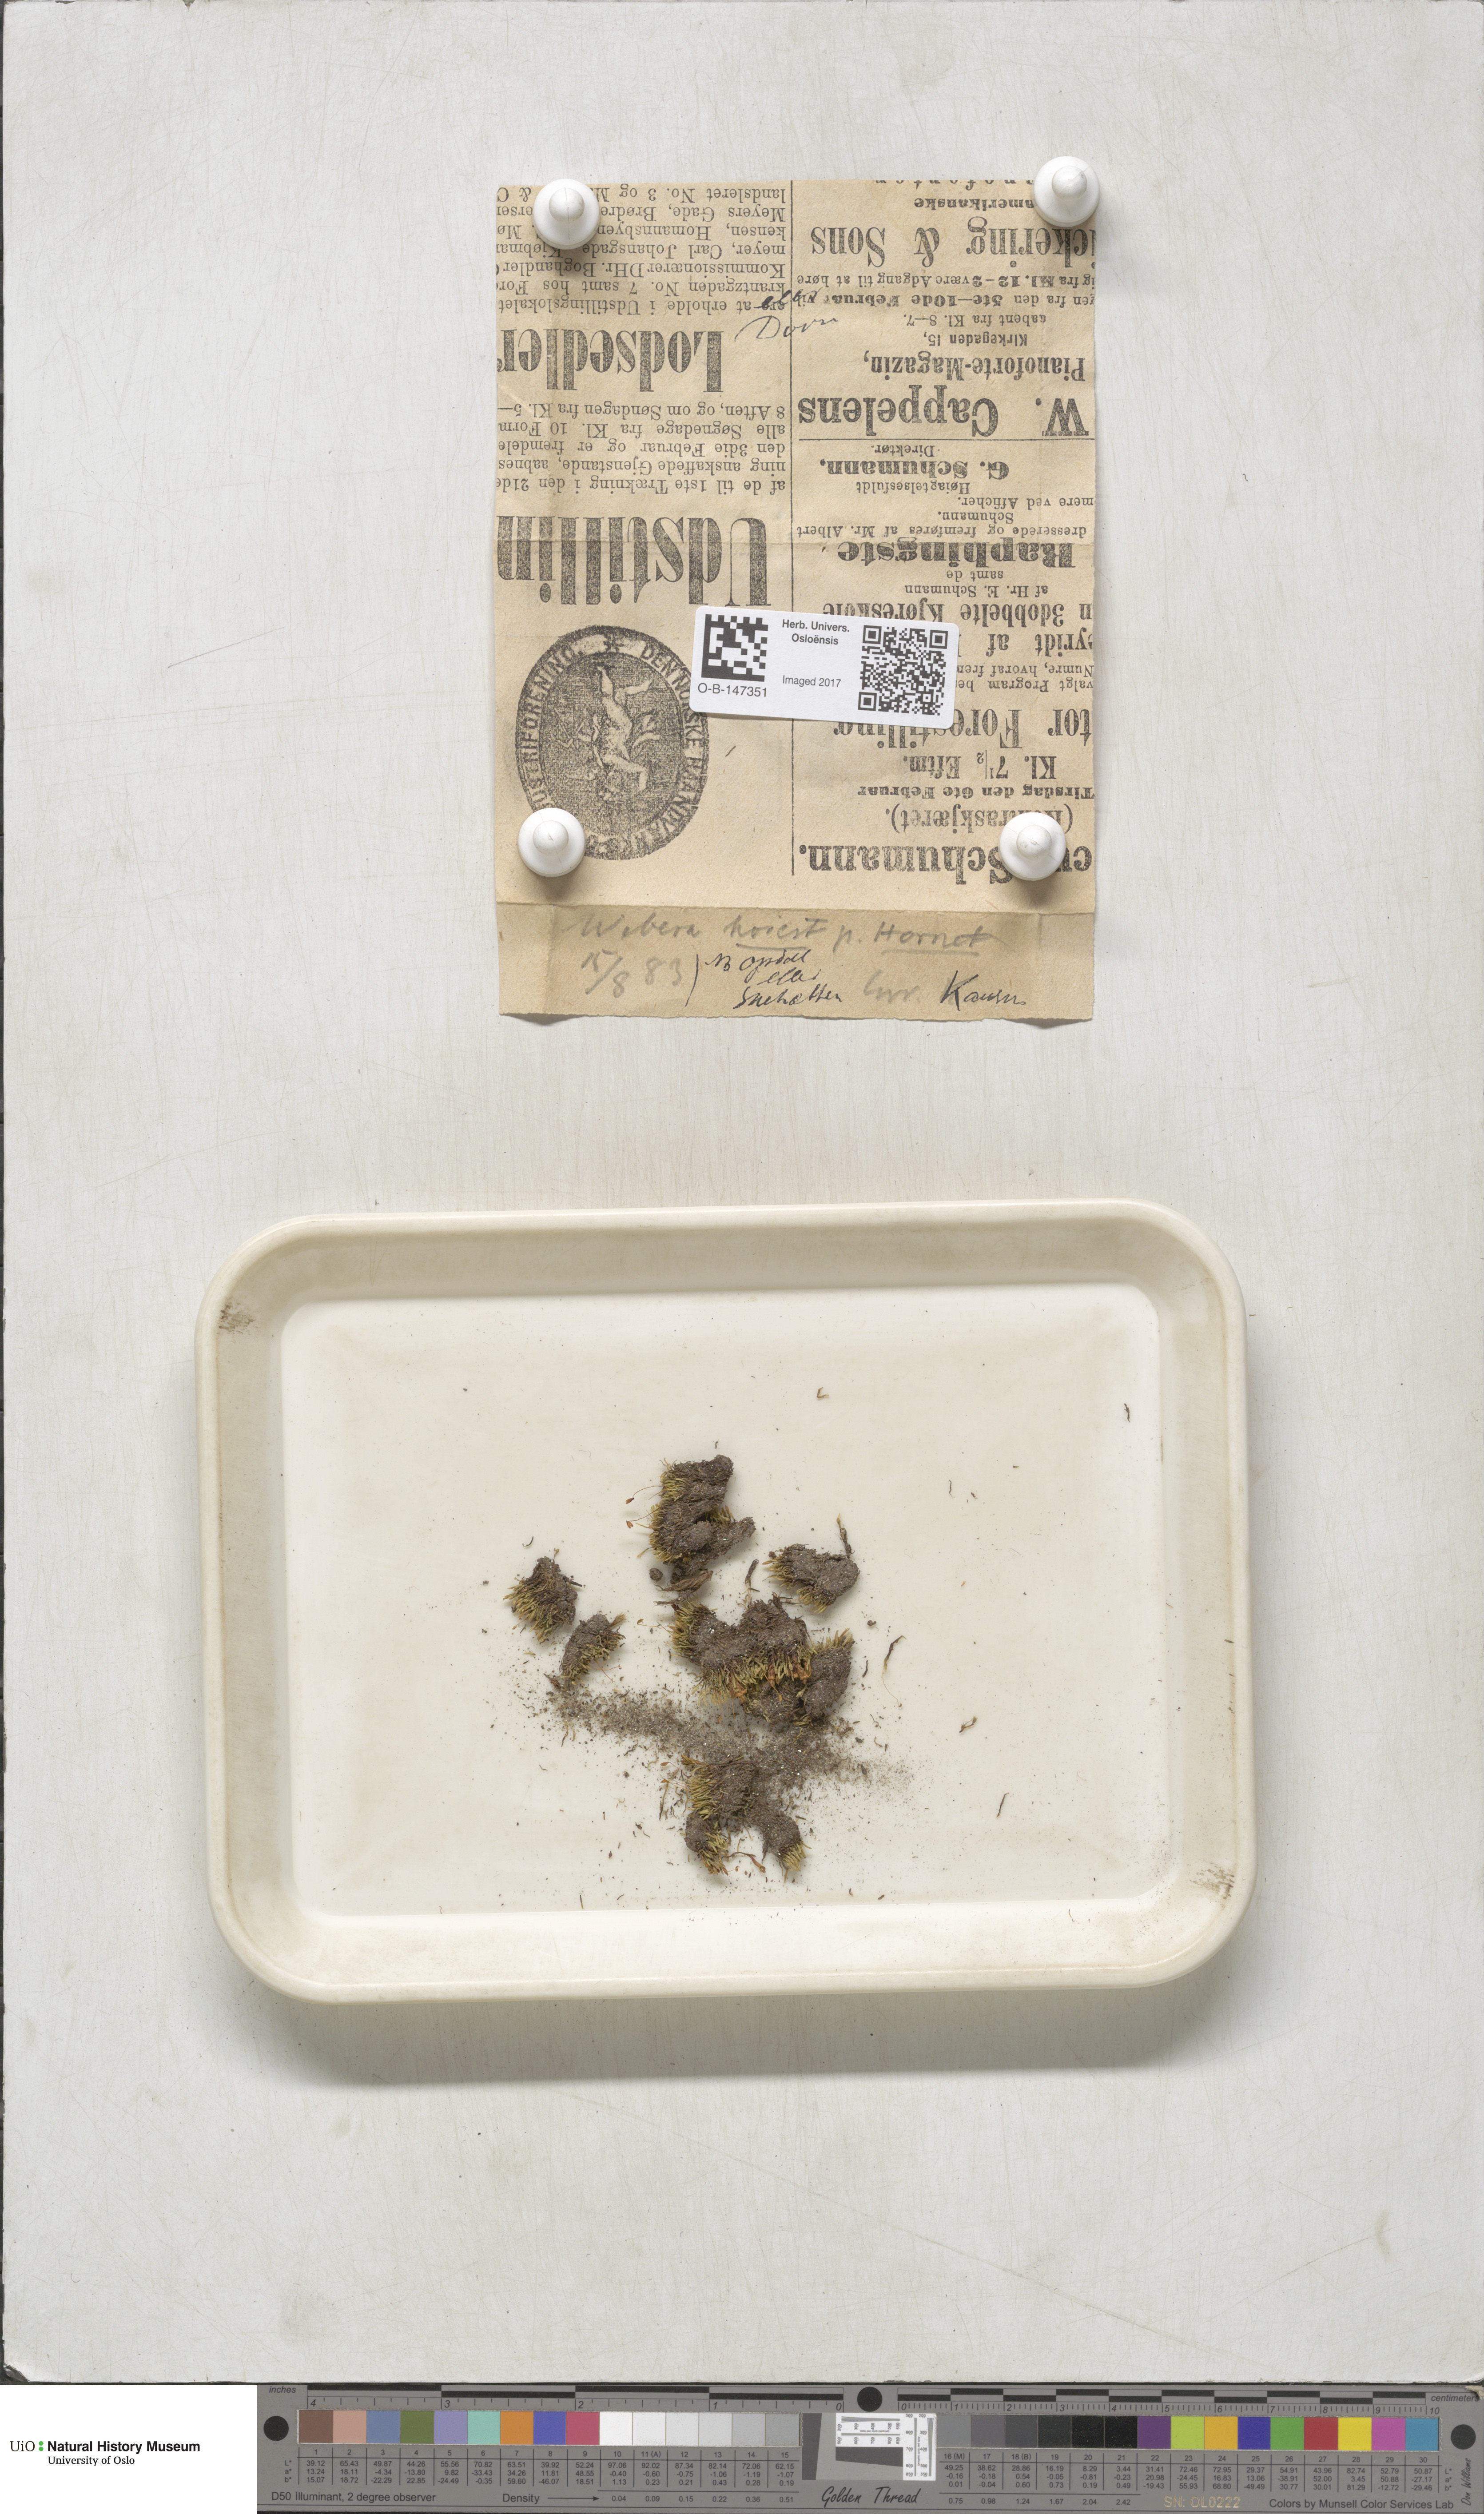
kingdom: Plantae
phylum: Bryophyta
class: Bryopsida
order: Bryales
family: Mniaceae
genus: Pohlia
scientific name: Pohlia
